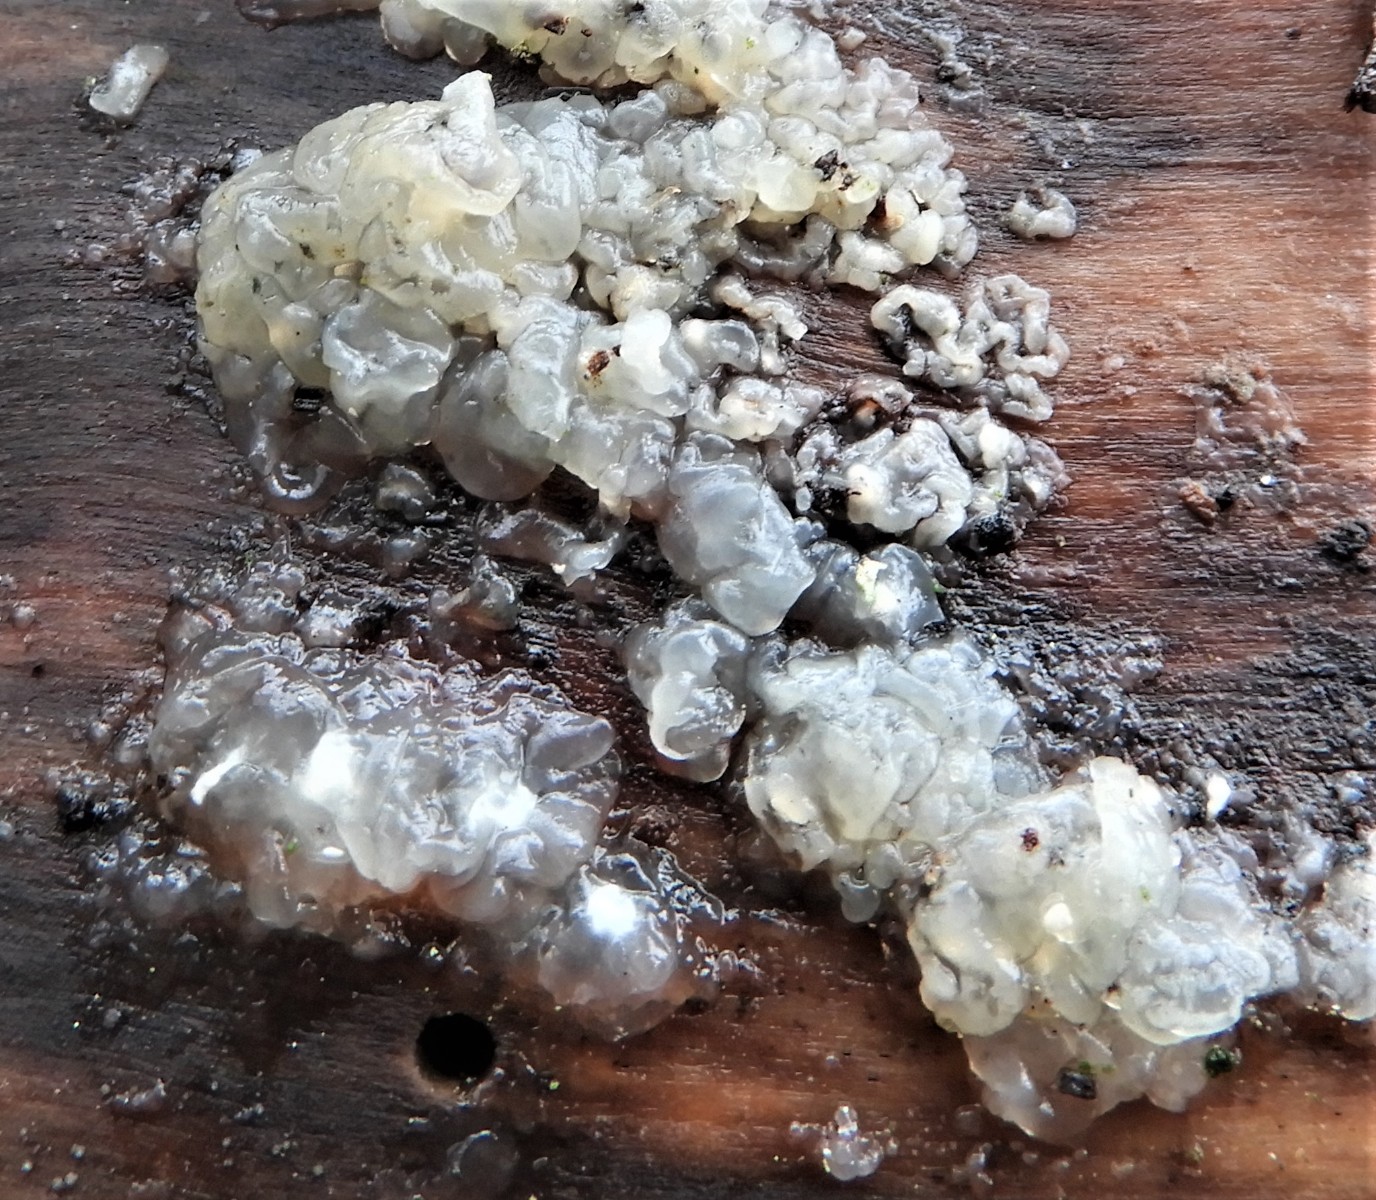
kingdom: Fungi
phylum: Basidiomycota
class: Agaricomycetes
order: Auriculariales
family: Hyaloriaceae
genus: Myxarium
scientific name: Myxarium nucleatum
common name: klar bævretop
